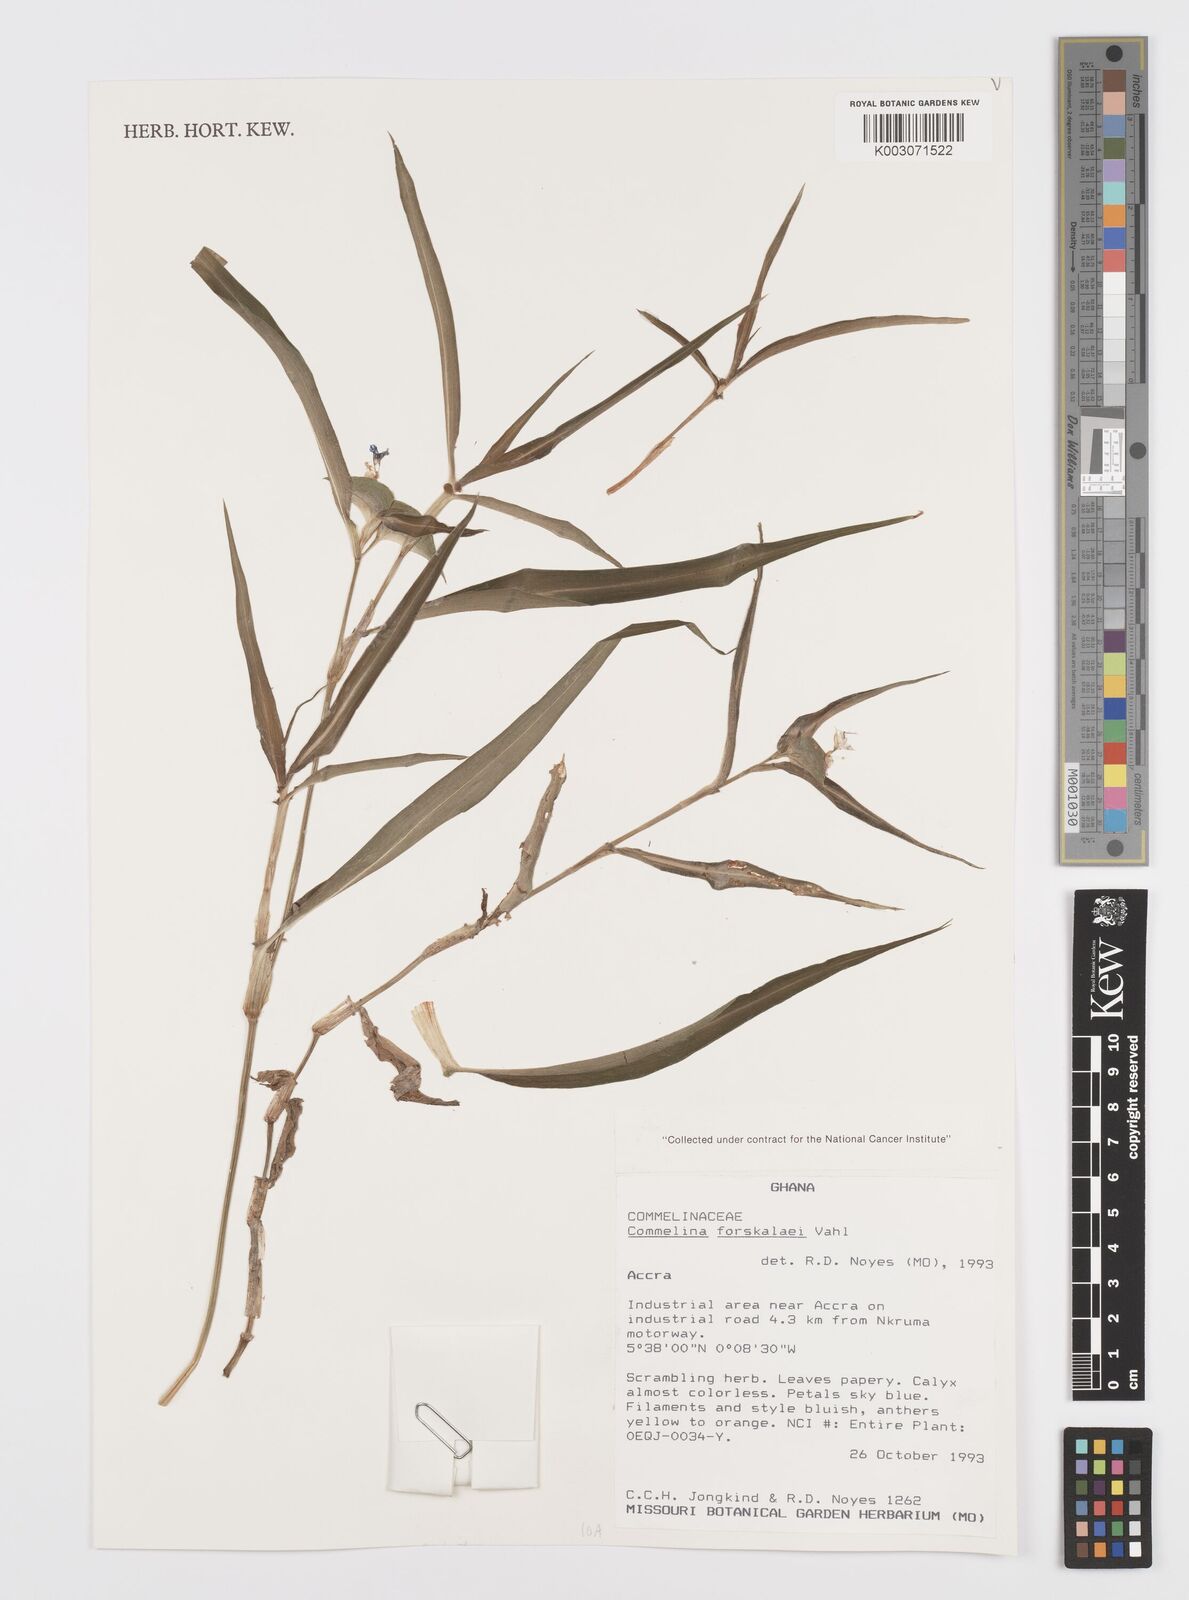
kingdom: Plantae
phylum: Tracheophyta
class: Liliopsida
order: Commelinales
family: Commelinaceae
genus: Commelina
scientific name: Commelina forskaolii
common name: Rat's ear
